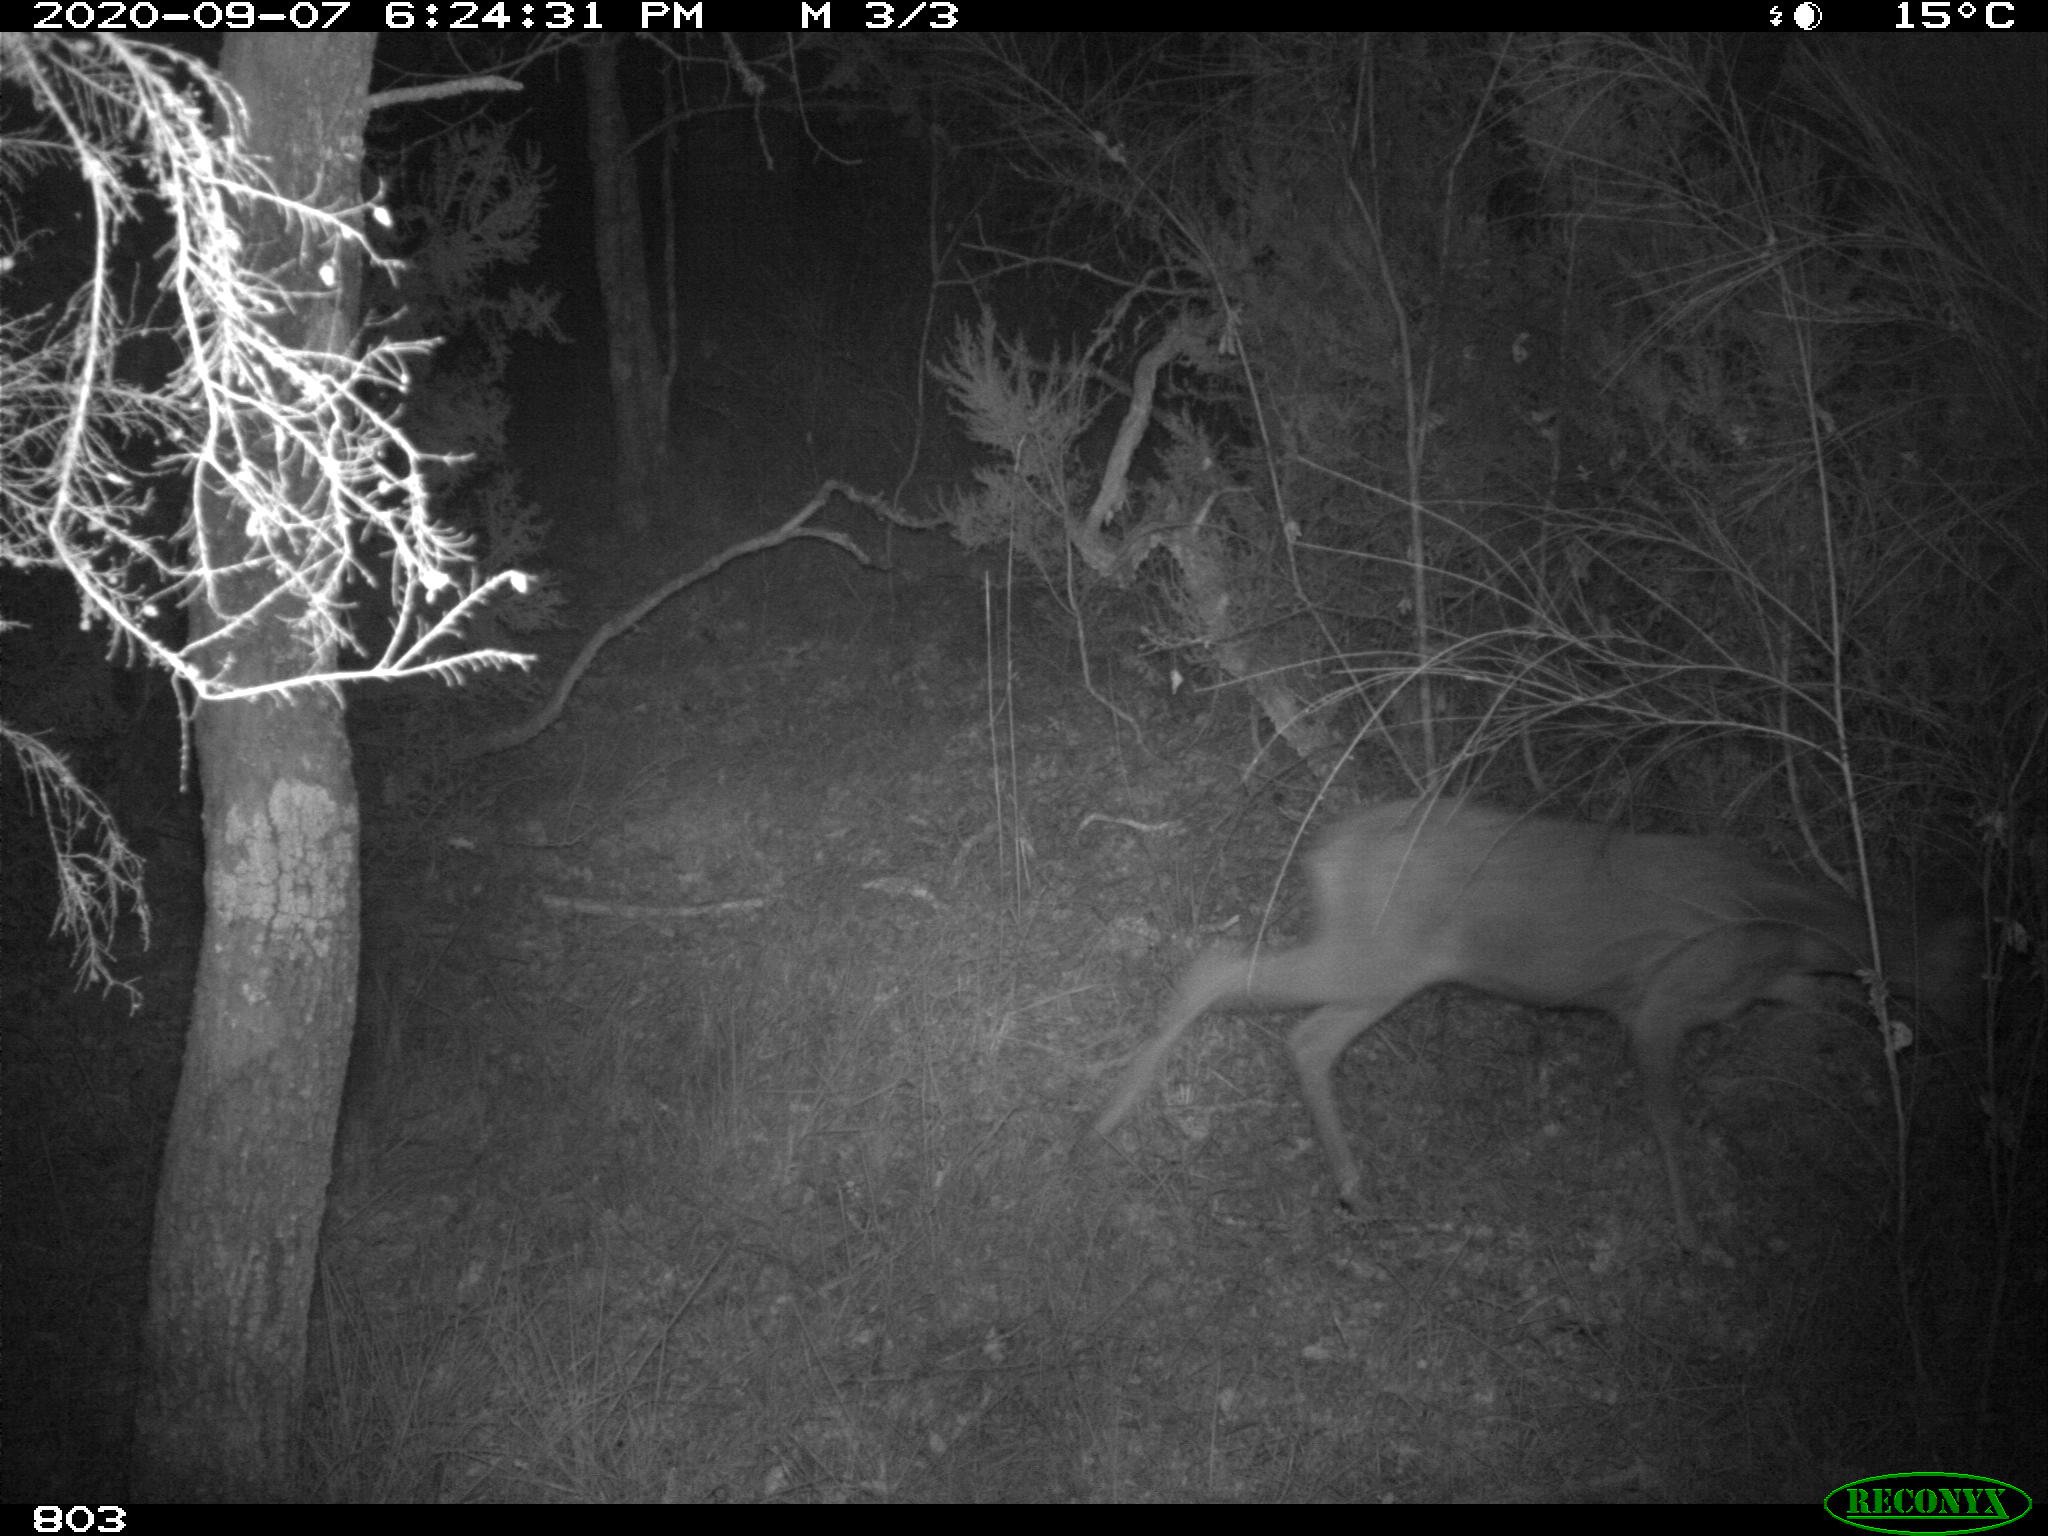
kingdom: Animalia
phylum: Chordata
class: Mammalia
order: Artiodactyla
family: Cervidae
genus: Capreolus
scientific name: Capreolus capreolus
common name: Western roe deer
